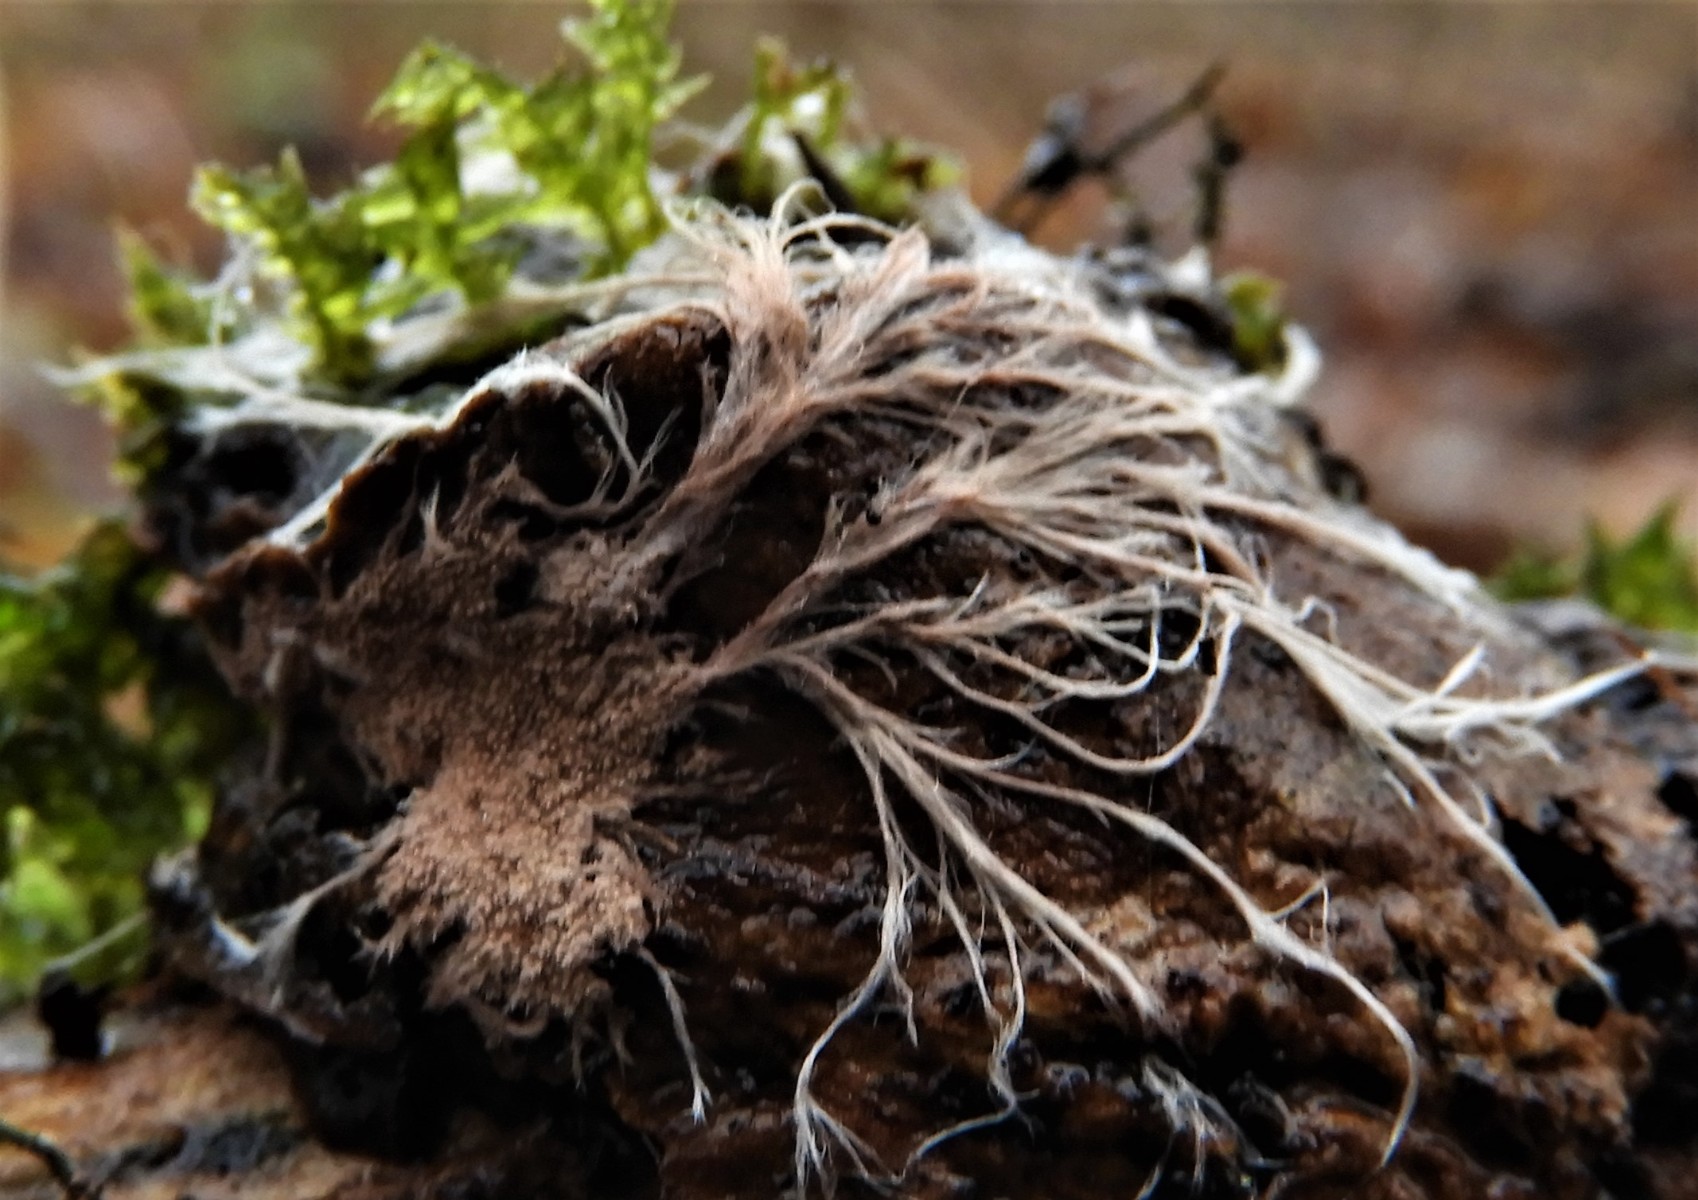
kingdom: Fungi
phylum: Basidiomycota
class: Agaricomycetes
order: Polyporales
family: Steccherinaceae
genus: Steccherinum
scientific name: Steccherinum fimbriatum
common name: trådet skønpig
